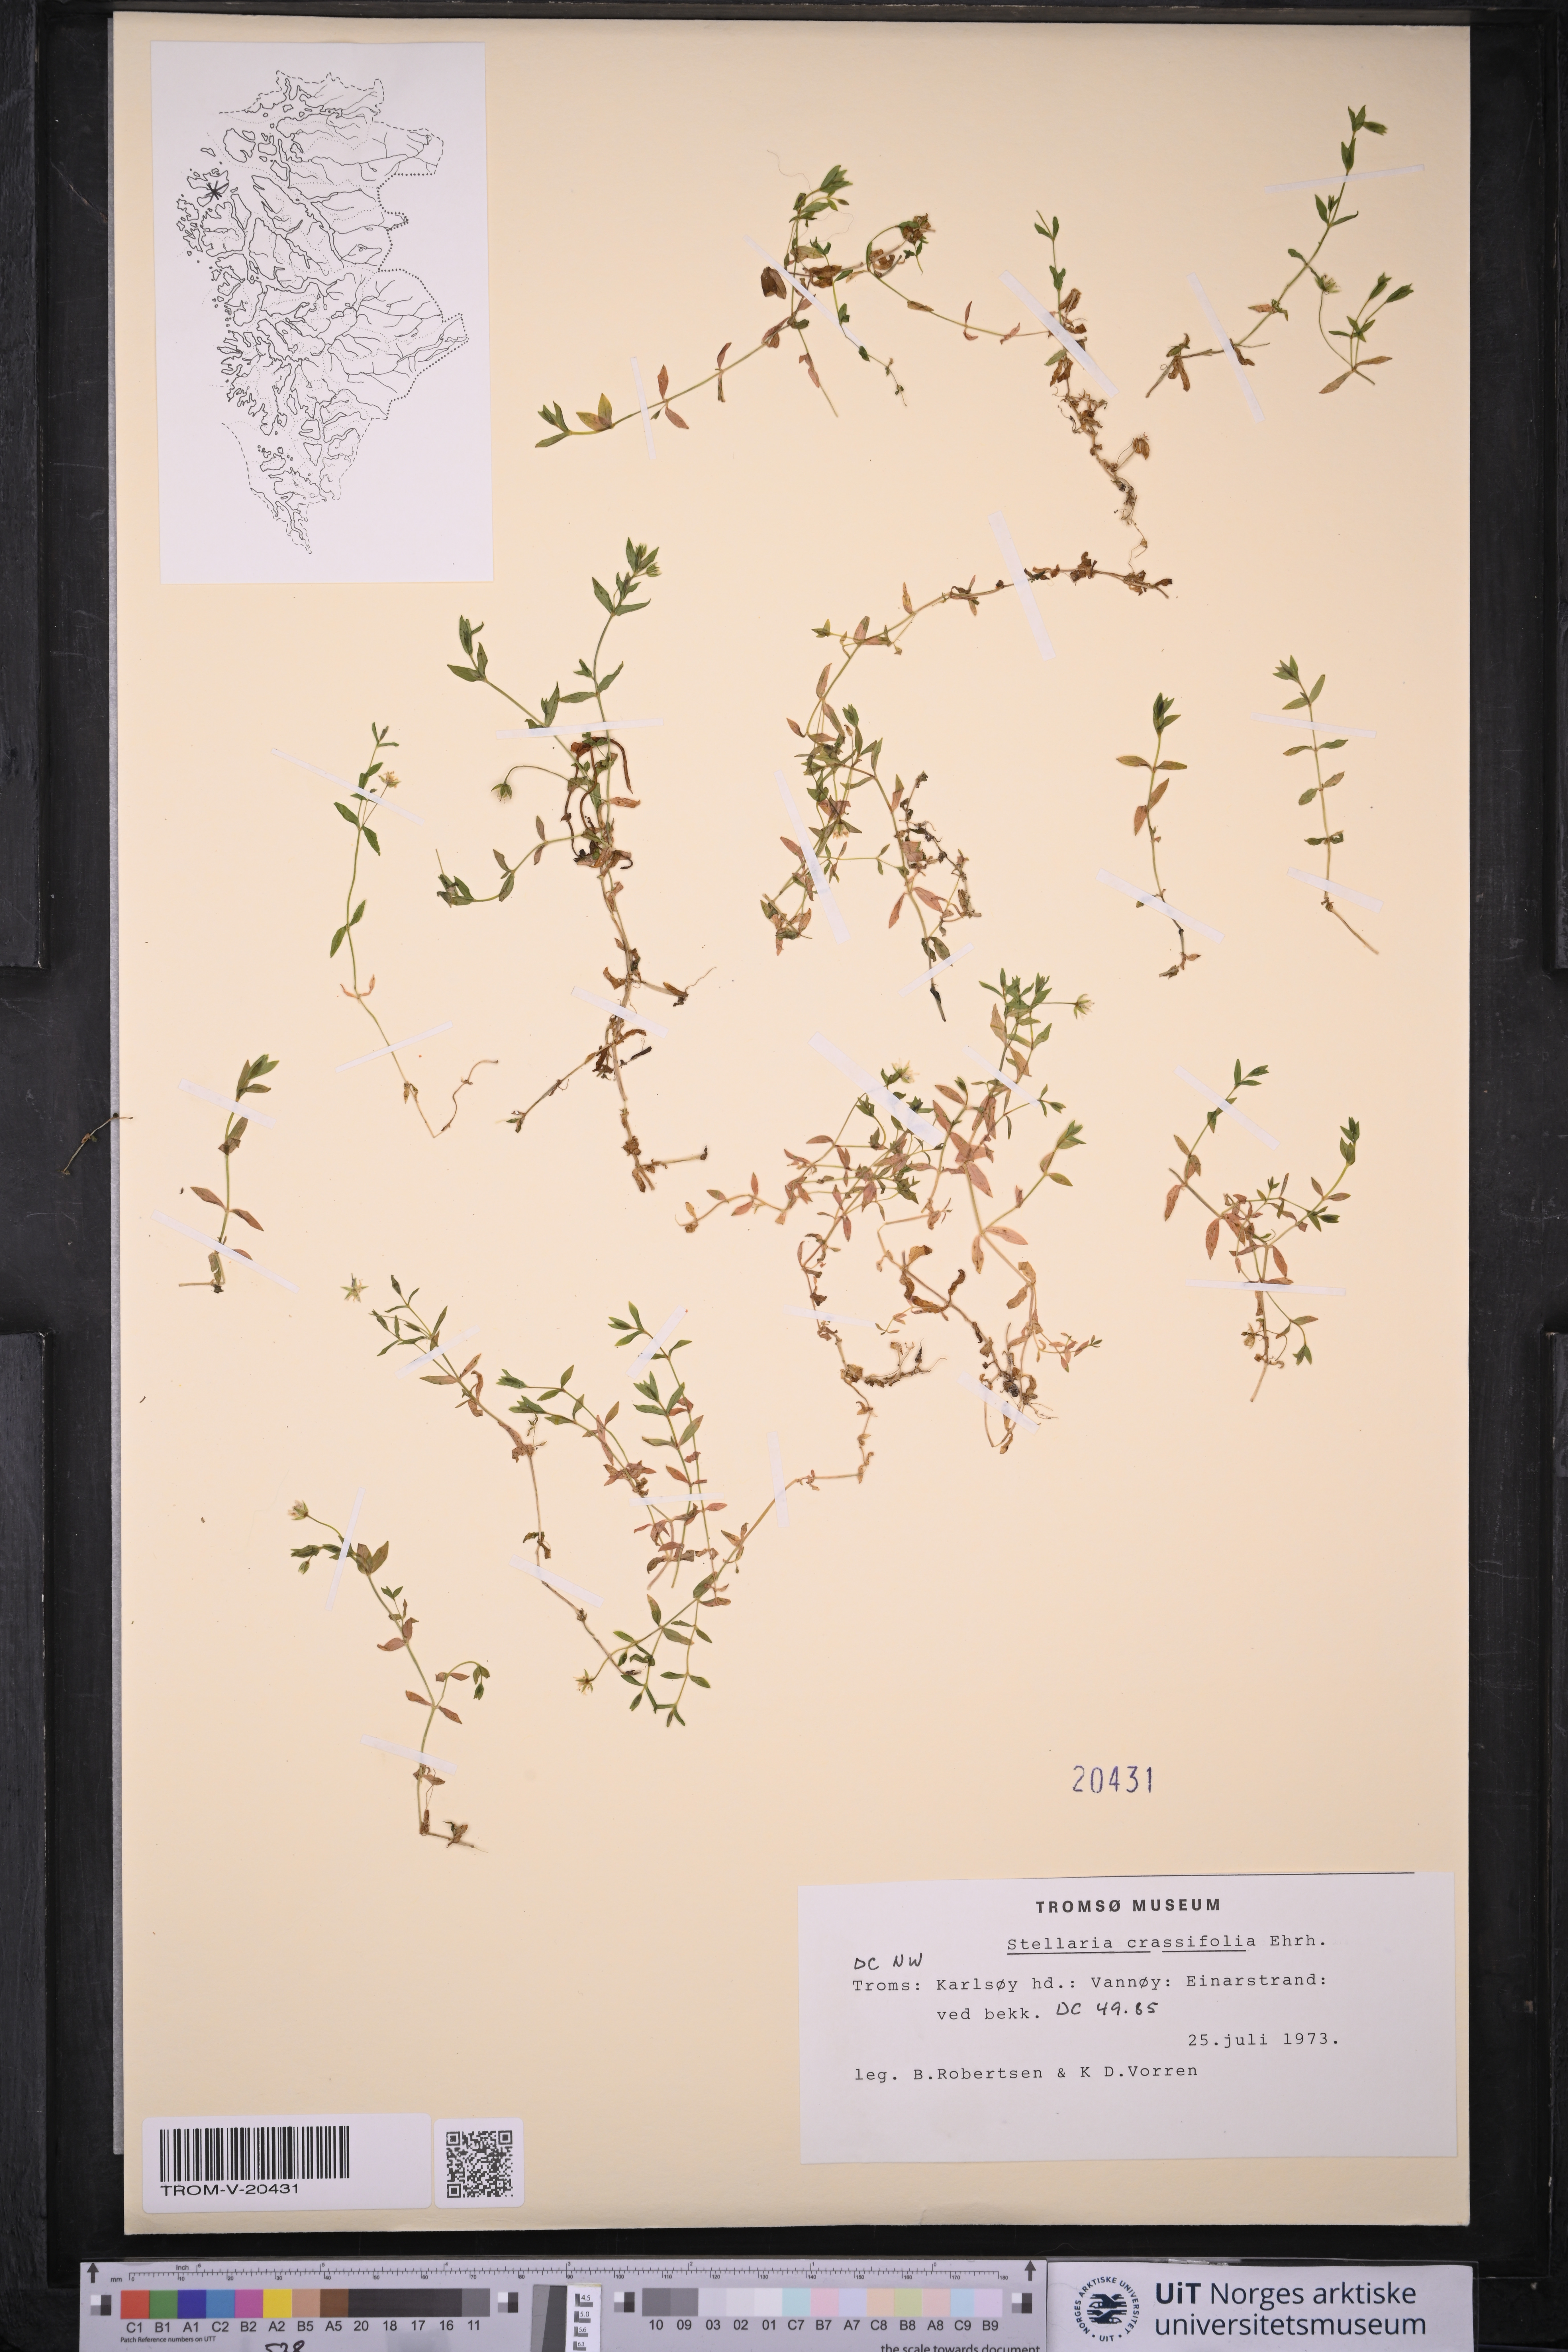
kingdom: Plantae
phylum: Tracheophyta
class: Magnoliopsida
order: Caryophyllales
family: Caryophyllaceae
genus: Stellaria
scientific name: Stellaria crassifolia
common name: Fleshy starwort
